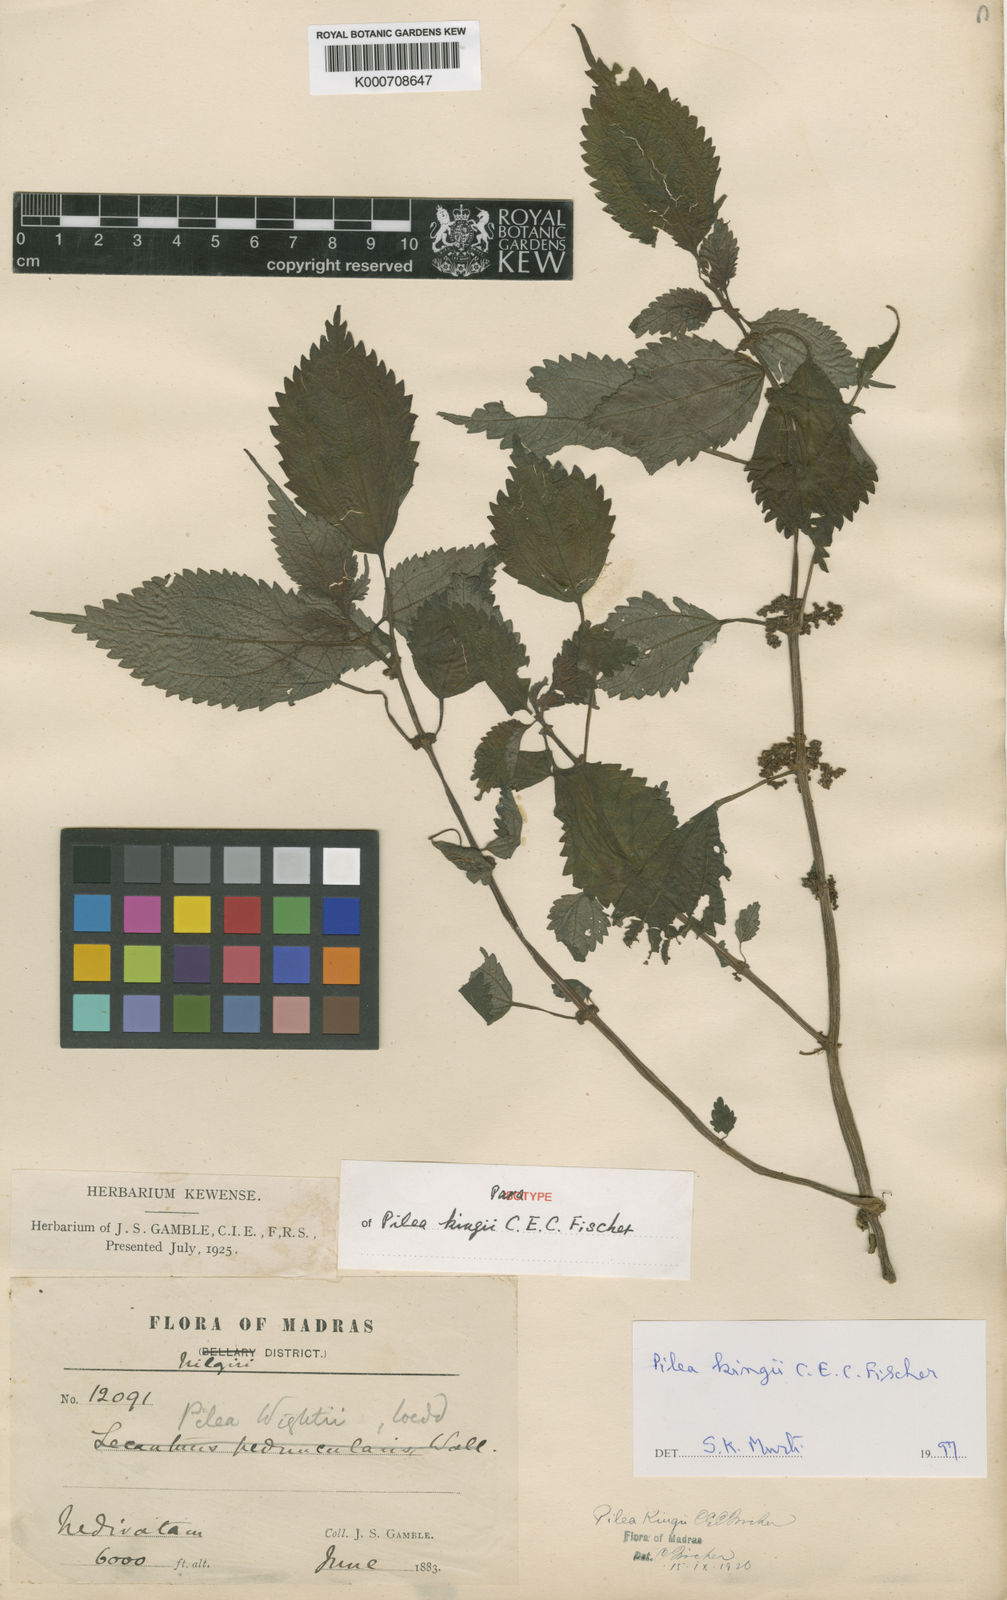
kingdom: Plantae
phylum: Tracheophyta
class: Magnoliopsida
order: Rosales
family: Urticaceae
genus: Pilea
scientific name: Pilea obesa
